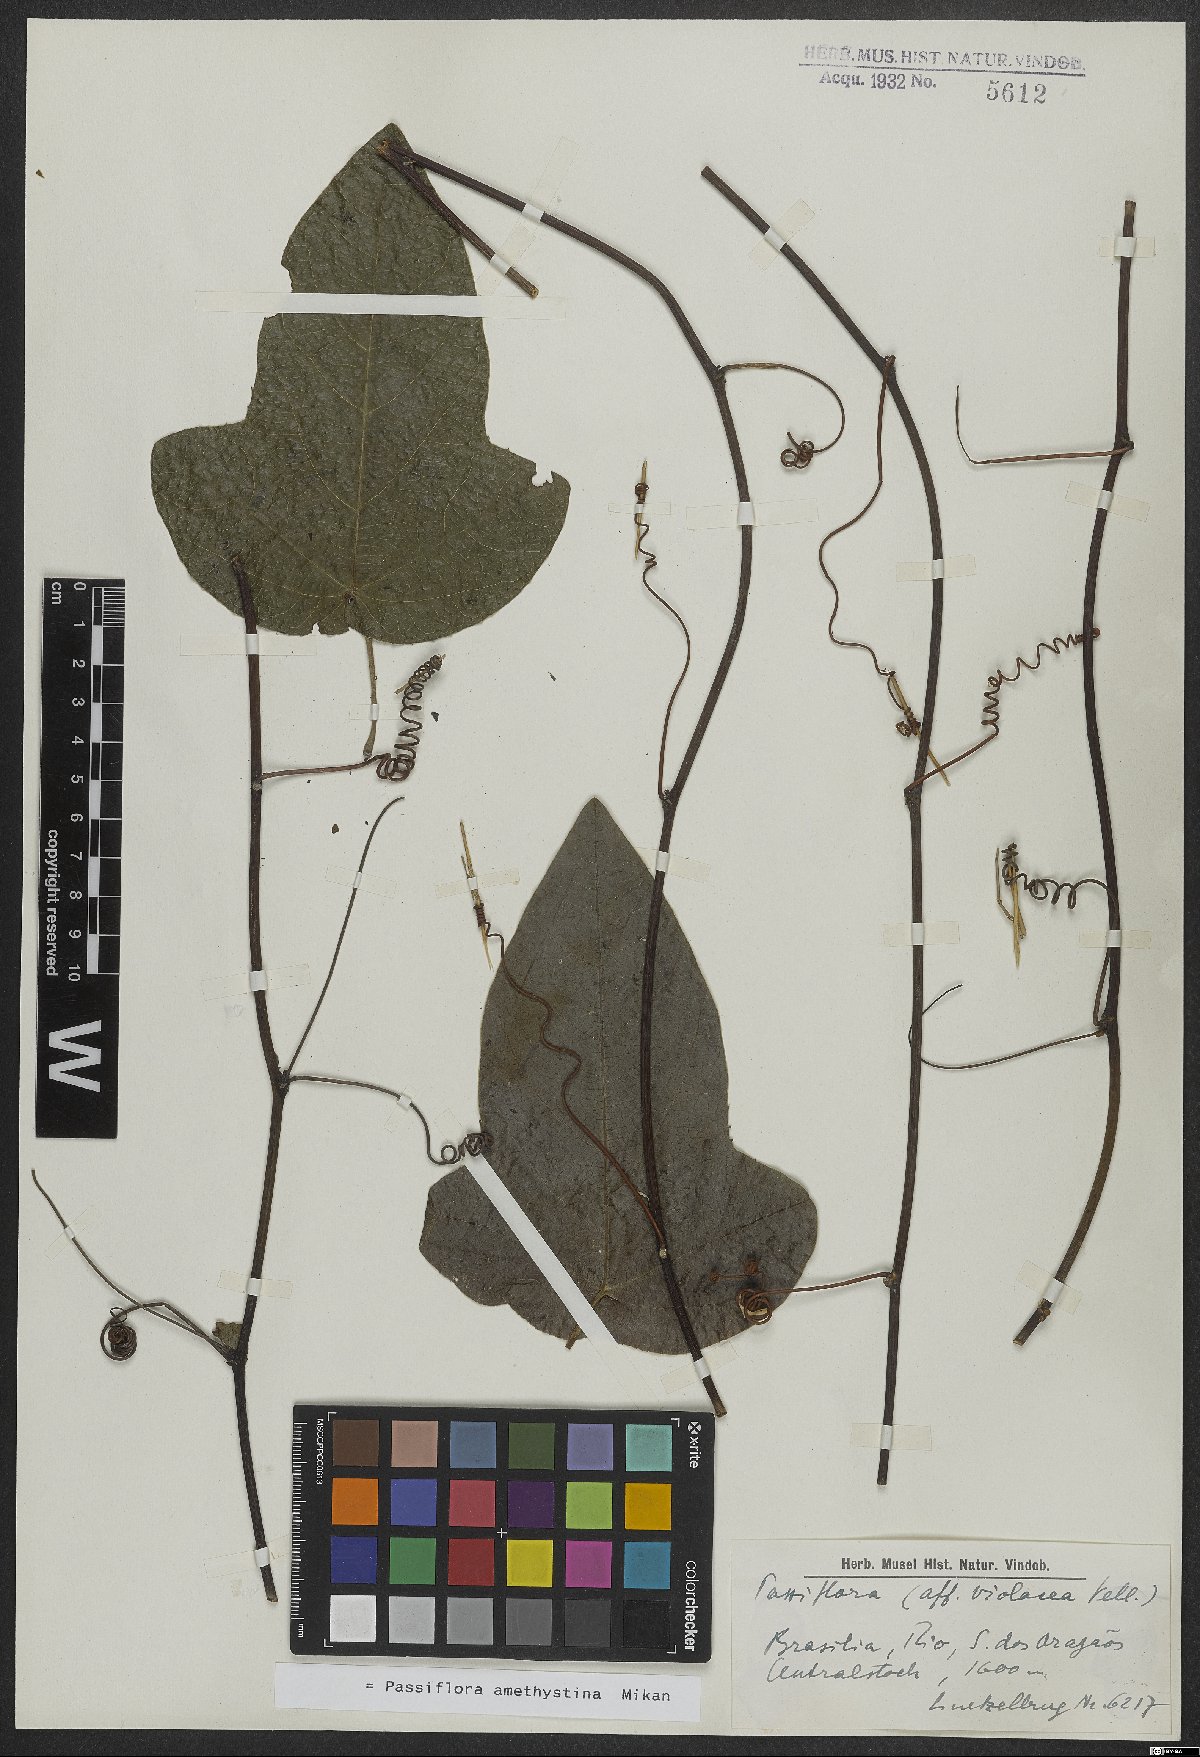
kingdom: Plantae
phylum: Tracheophyta
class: Magnoliopsida
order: Malpighiales
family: Passifloraceae
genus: Passiflora
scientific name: Passiflora amethystina
